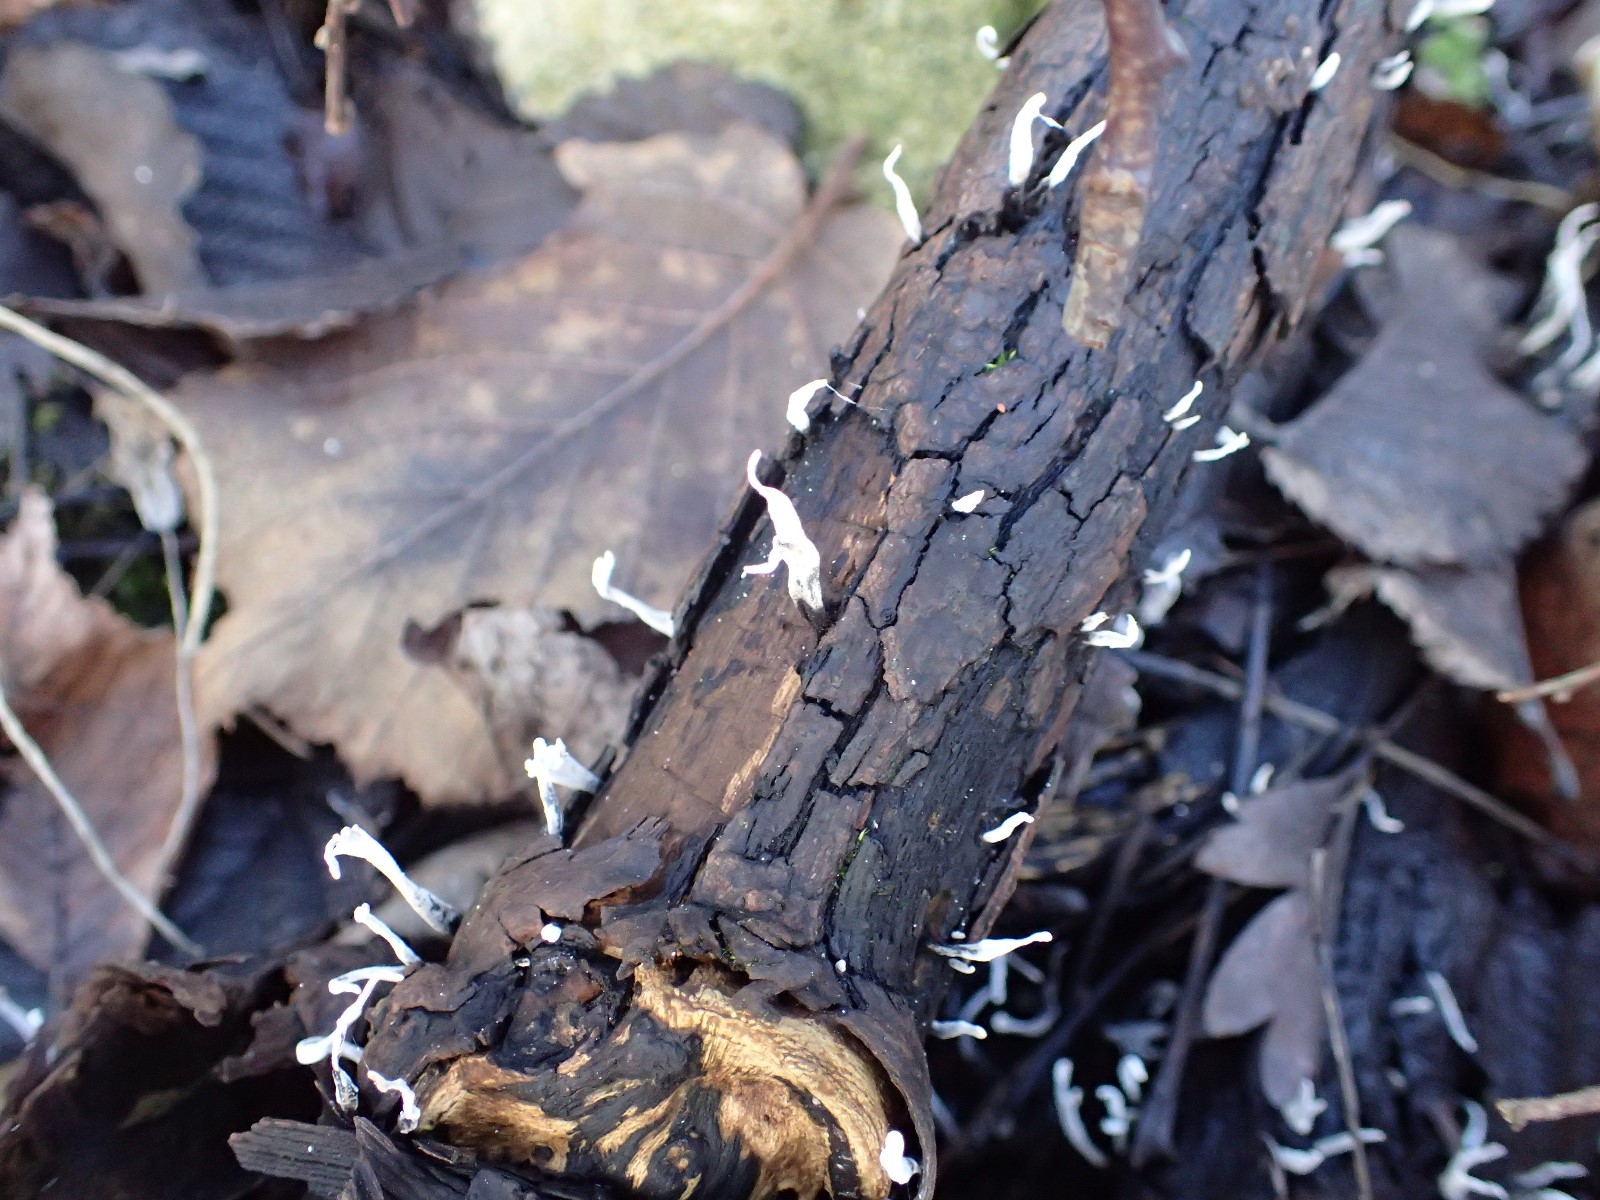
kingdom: Fungi
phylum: Ascomycota
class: Sordariomycetes
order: Xylariales
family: Xylariaceae
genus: Xylaria
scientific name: Xylaria hypoxylon
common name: grenet stødsvamp
